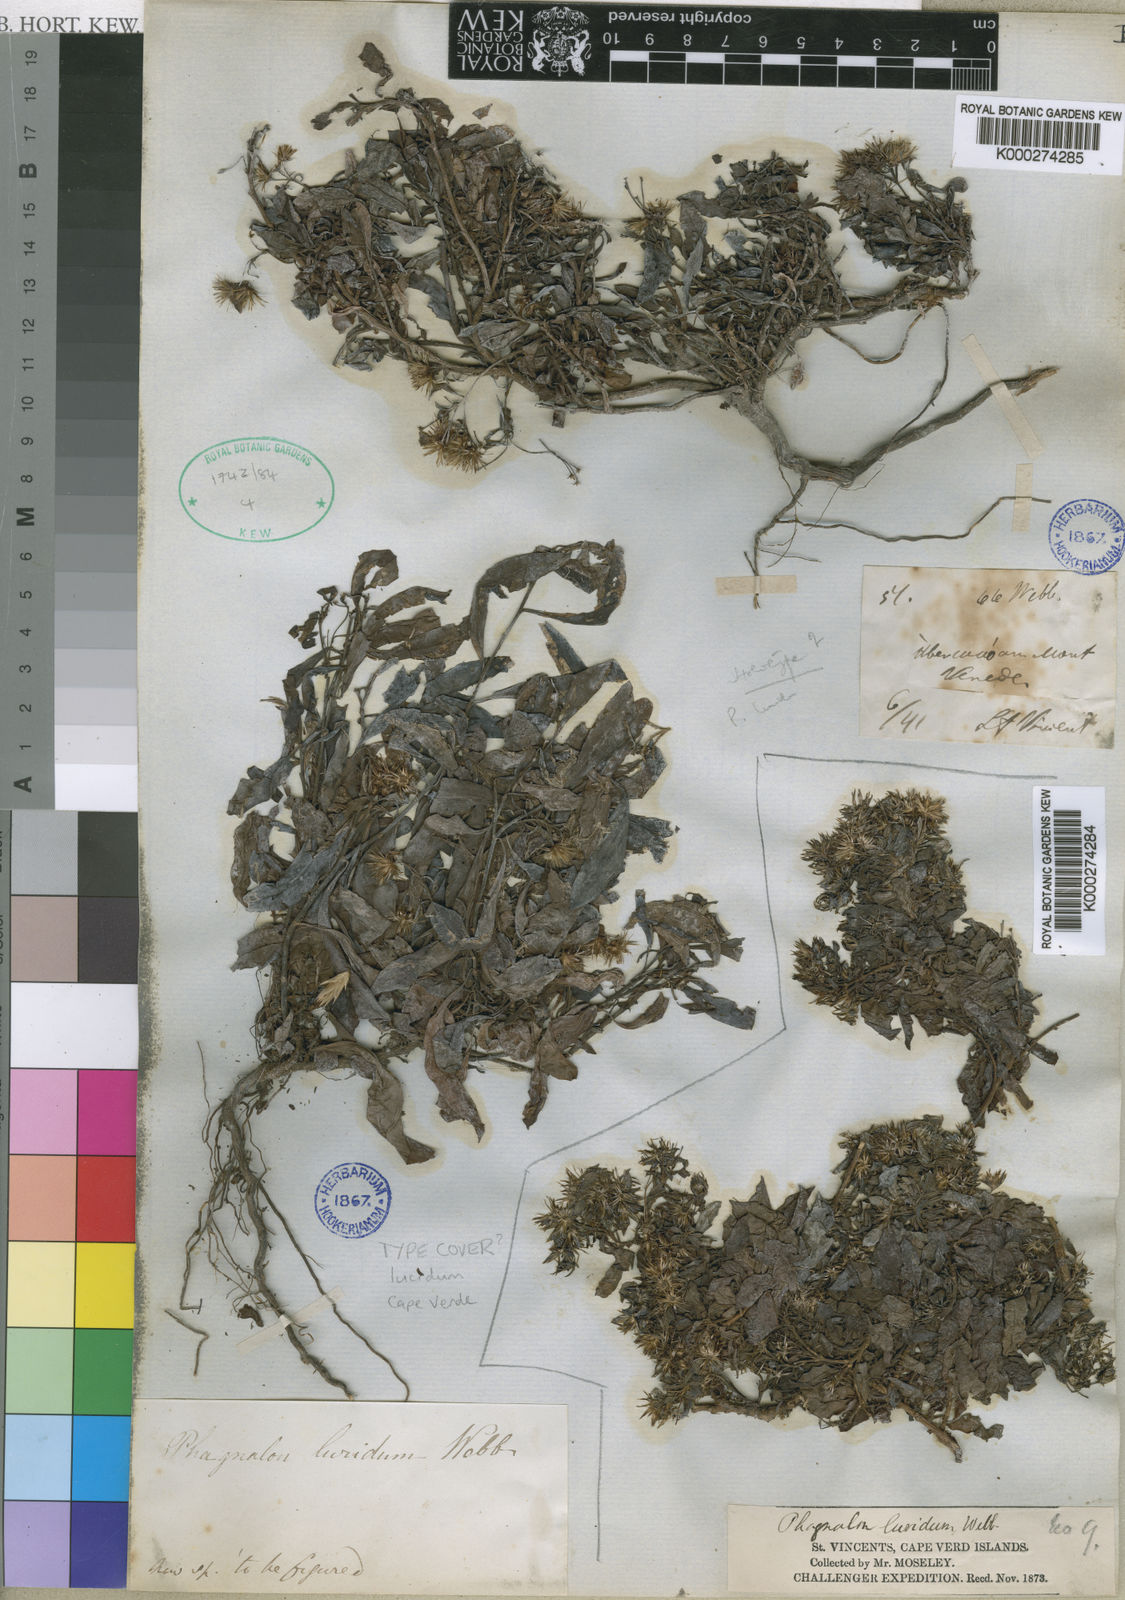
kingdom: Plantae
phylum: Tracheophyta
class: Magnoliopsida
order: Asterales
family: Asteraceae
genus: Phagnalon
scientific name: Phagnalon
